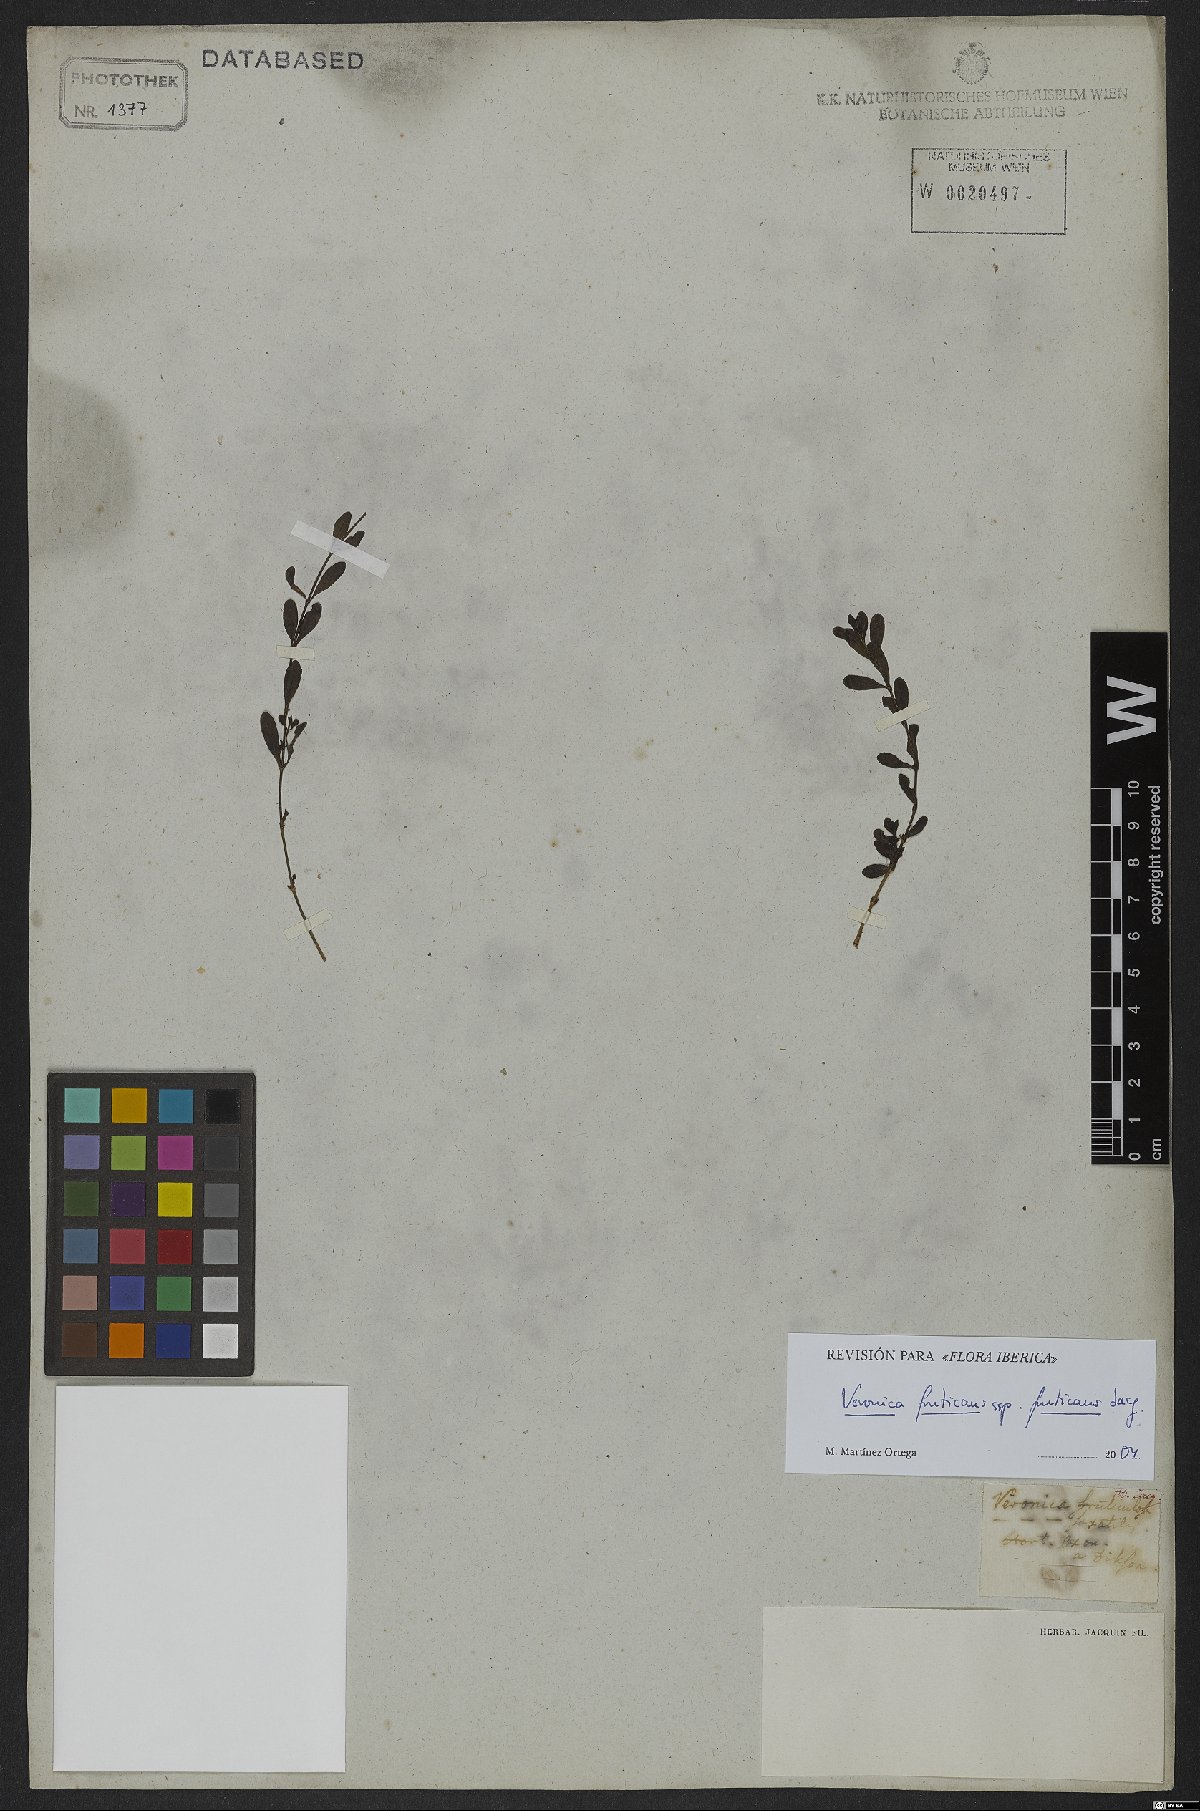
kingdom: Plantae
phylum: Tracheophyta
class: Magnoliopsida
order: Lamiales
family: Plantaginaceae
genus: Veronica
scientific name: Veronica fruticans
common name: Rock speedwell
